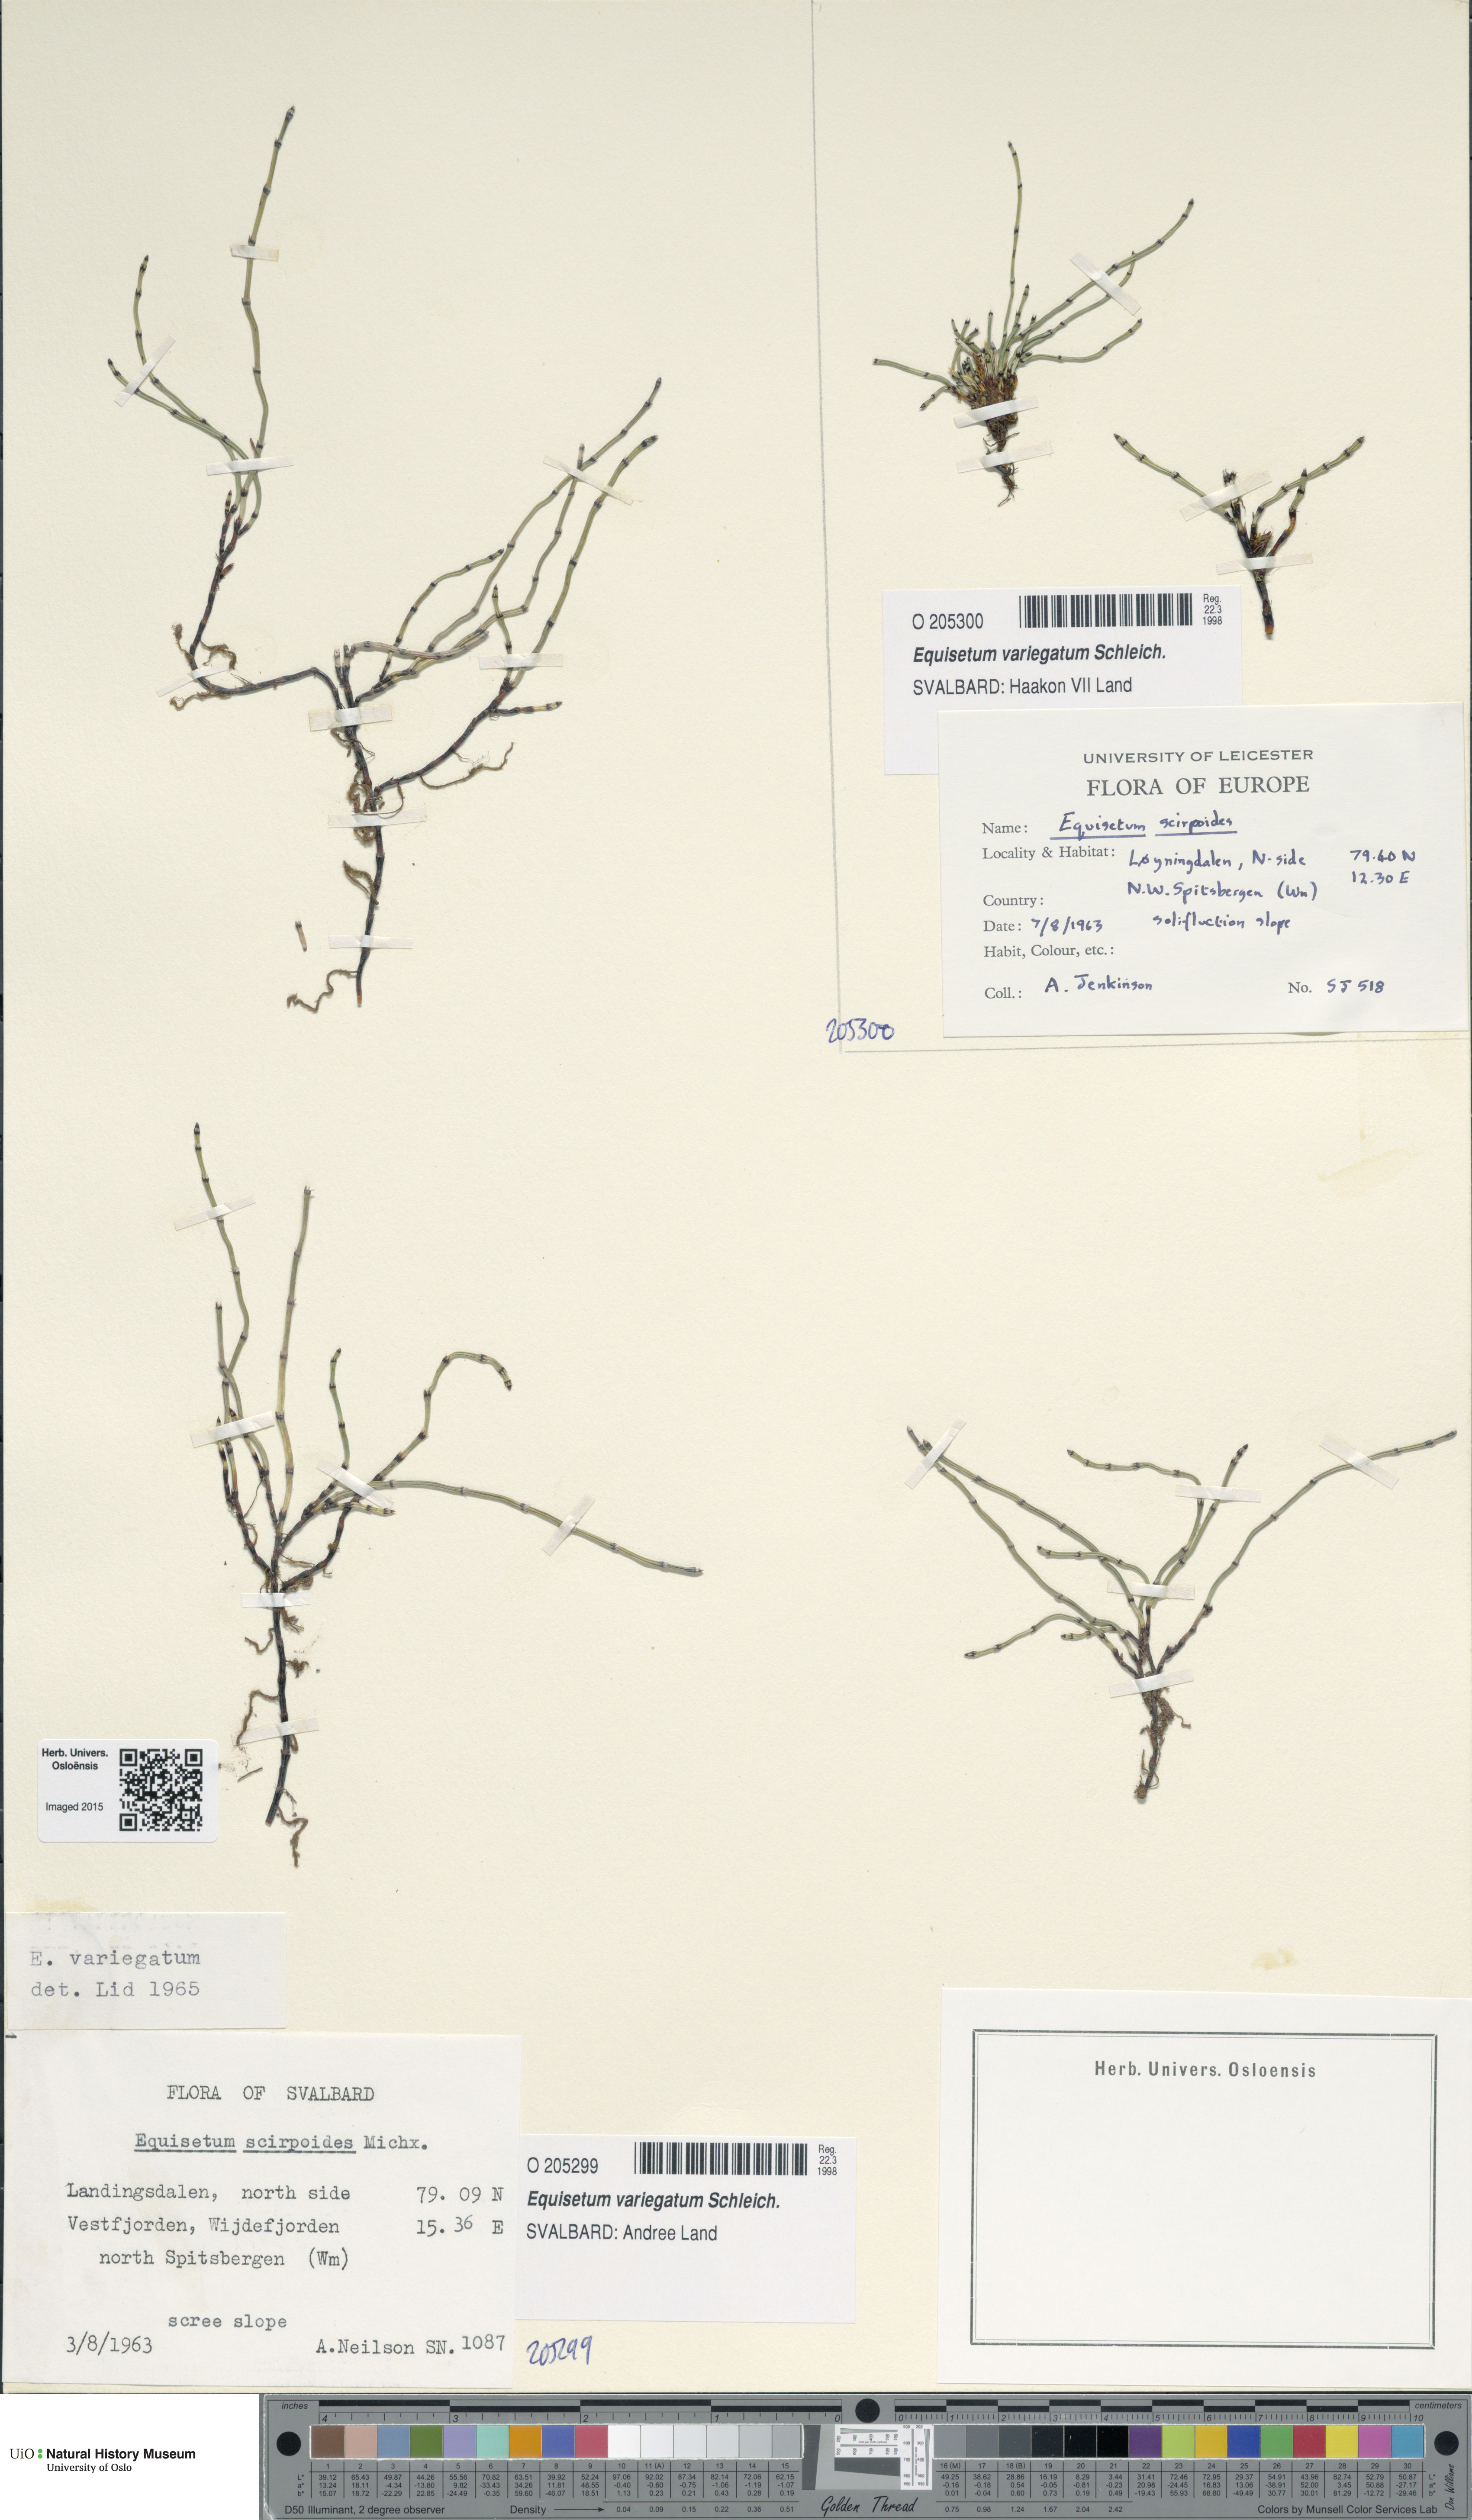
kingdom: Plantae
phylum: Tracheophyta
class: Polypodiopsida
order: Equisetales
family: Equisetaceae
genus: Equisetum
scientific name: Equisetum variegatum
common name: Variegated horsetail
